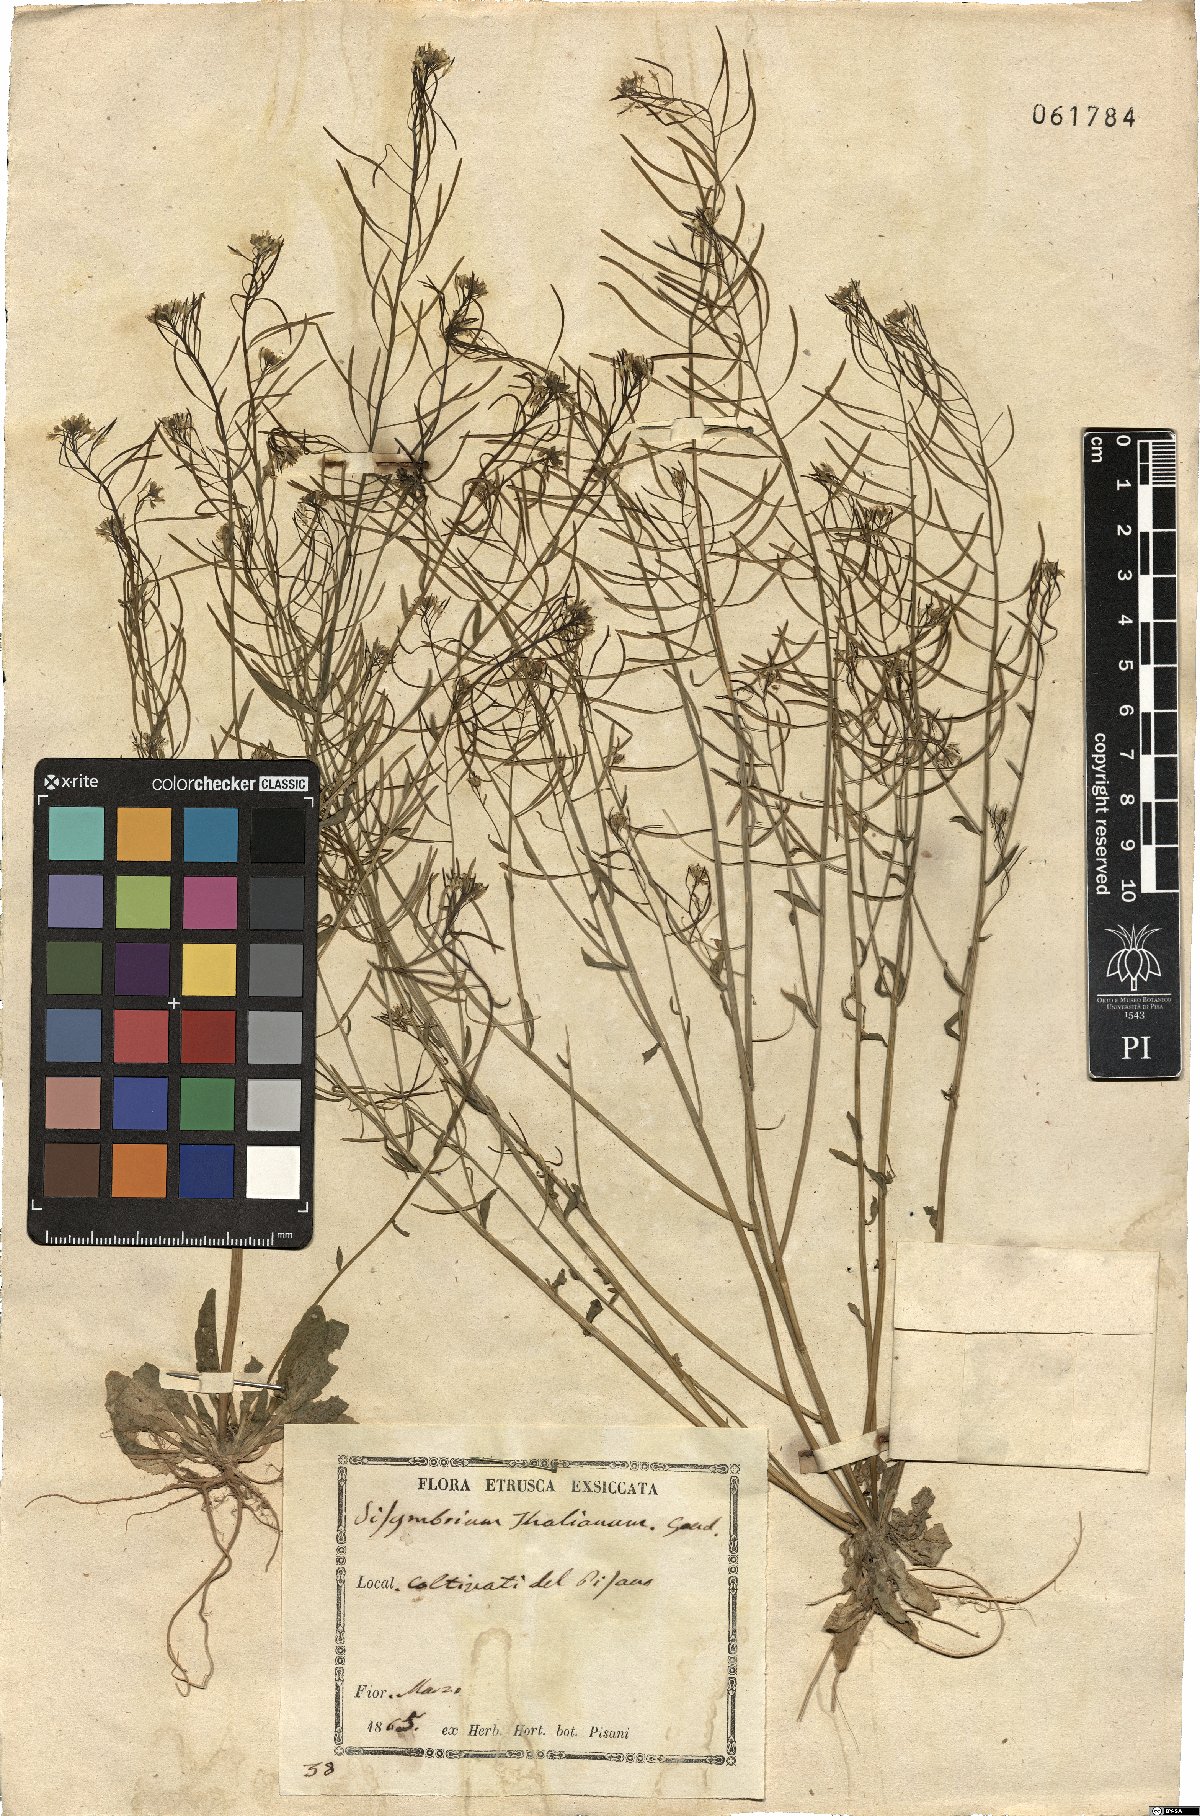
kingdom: Plantae
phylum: Tracheophyta
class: Magnoliopsida
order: Brassicales
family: Brassicaceae
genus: Arabidopsis
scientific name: Arabidopsis thaliana
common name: Thale cress
